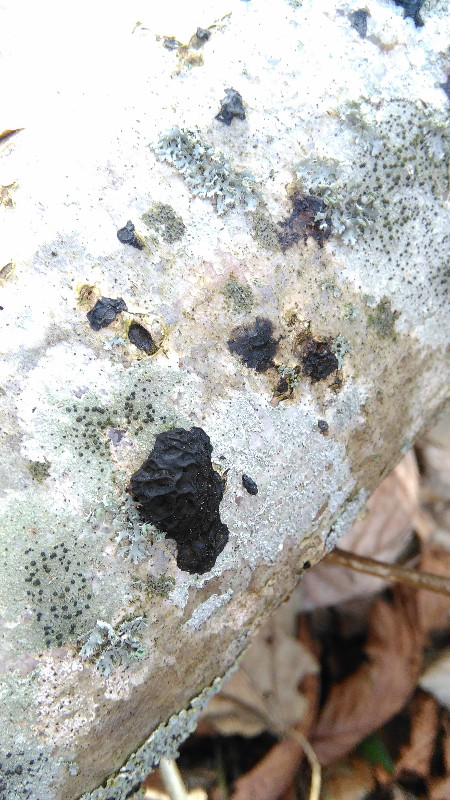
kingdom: Fungi
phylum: Basidiomycota
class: Agaricomycetes
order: Auriculariales
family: Auriculariaceae
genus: Exidia
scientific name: Exidia nigricans
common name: almindelig bævretop
